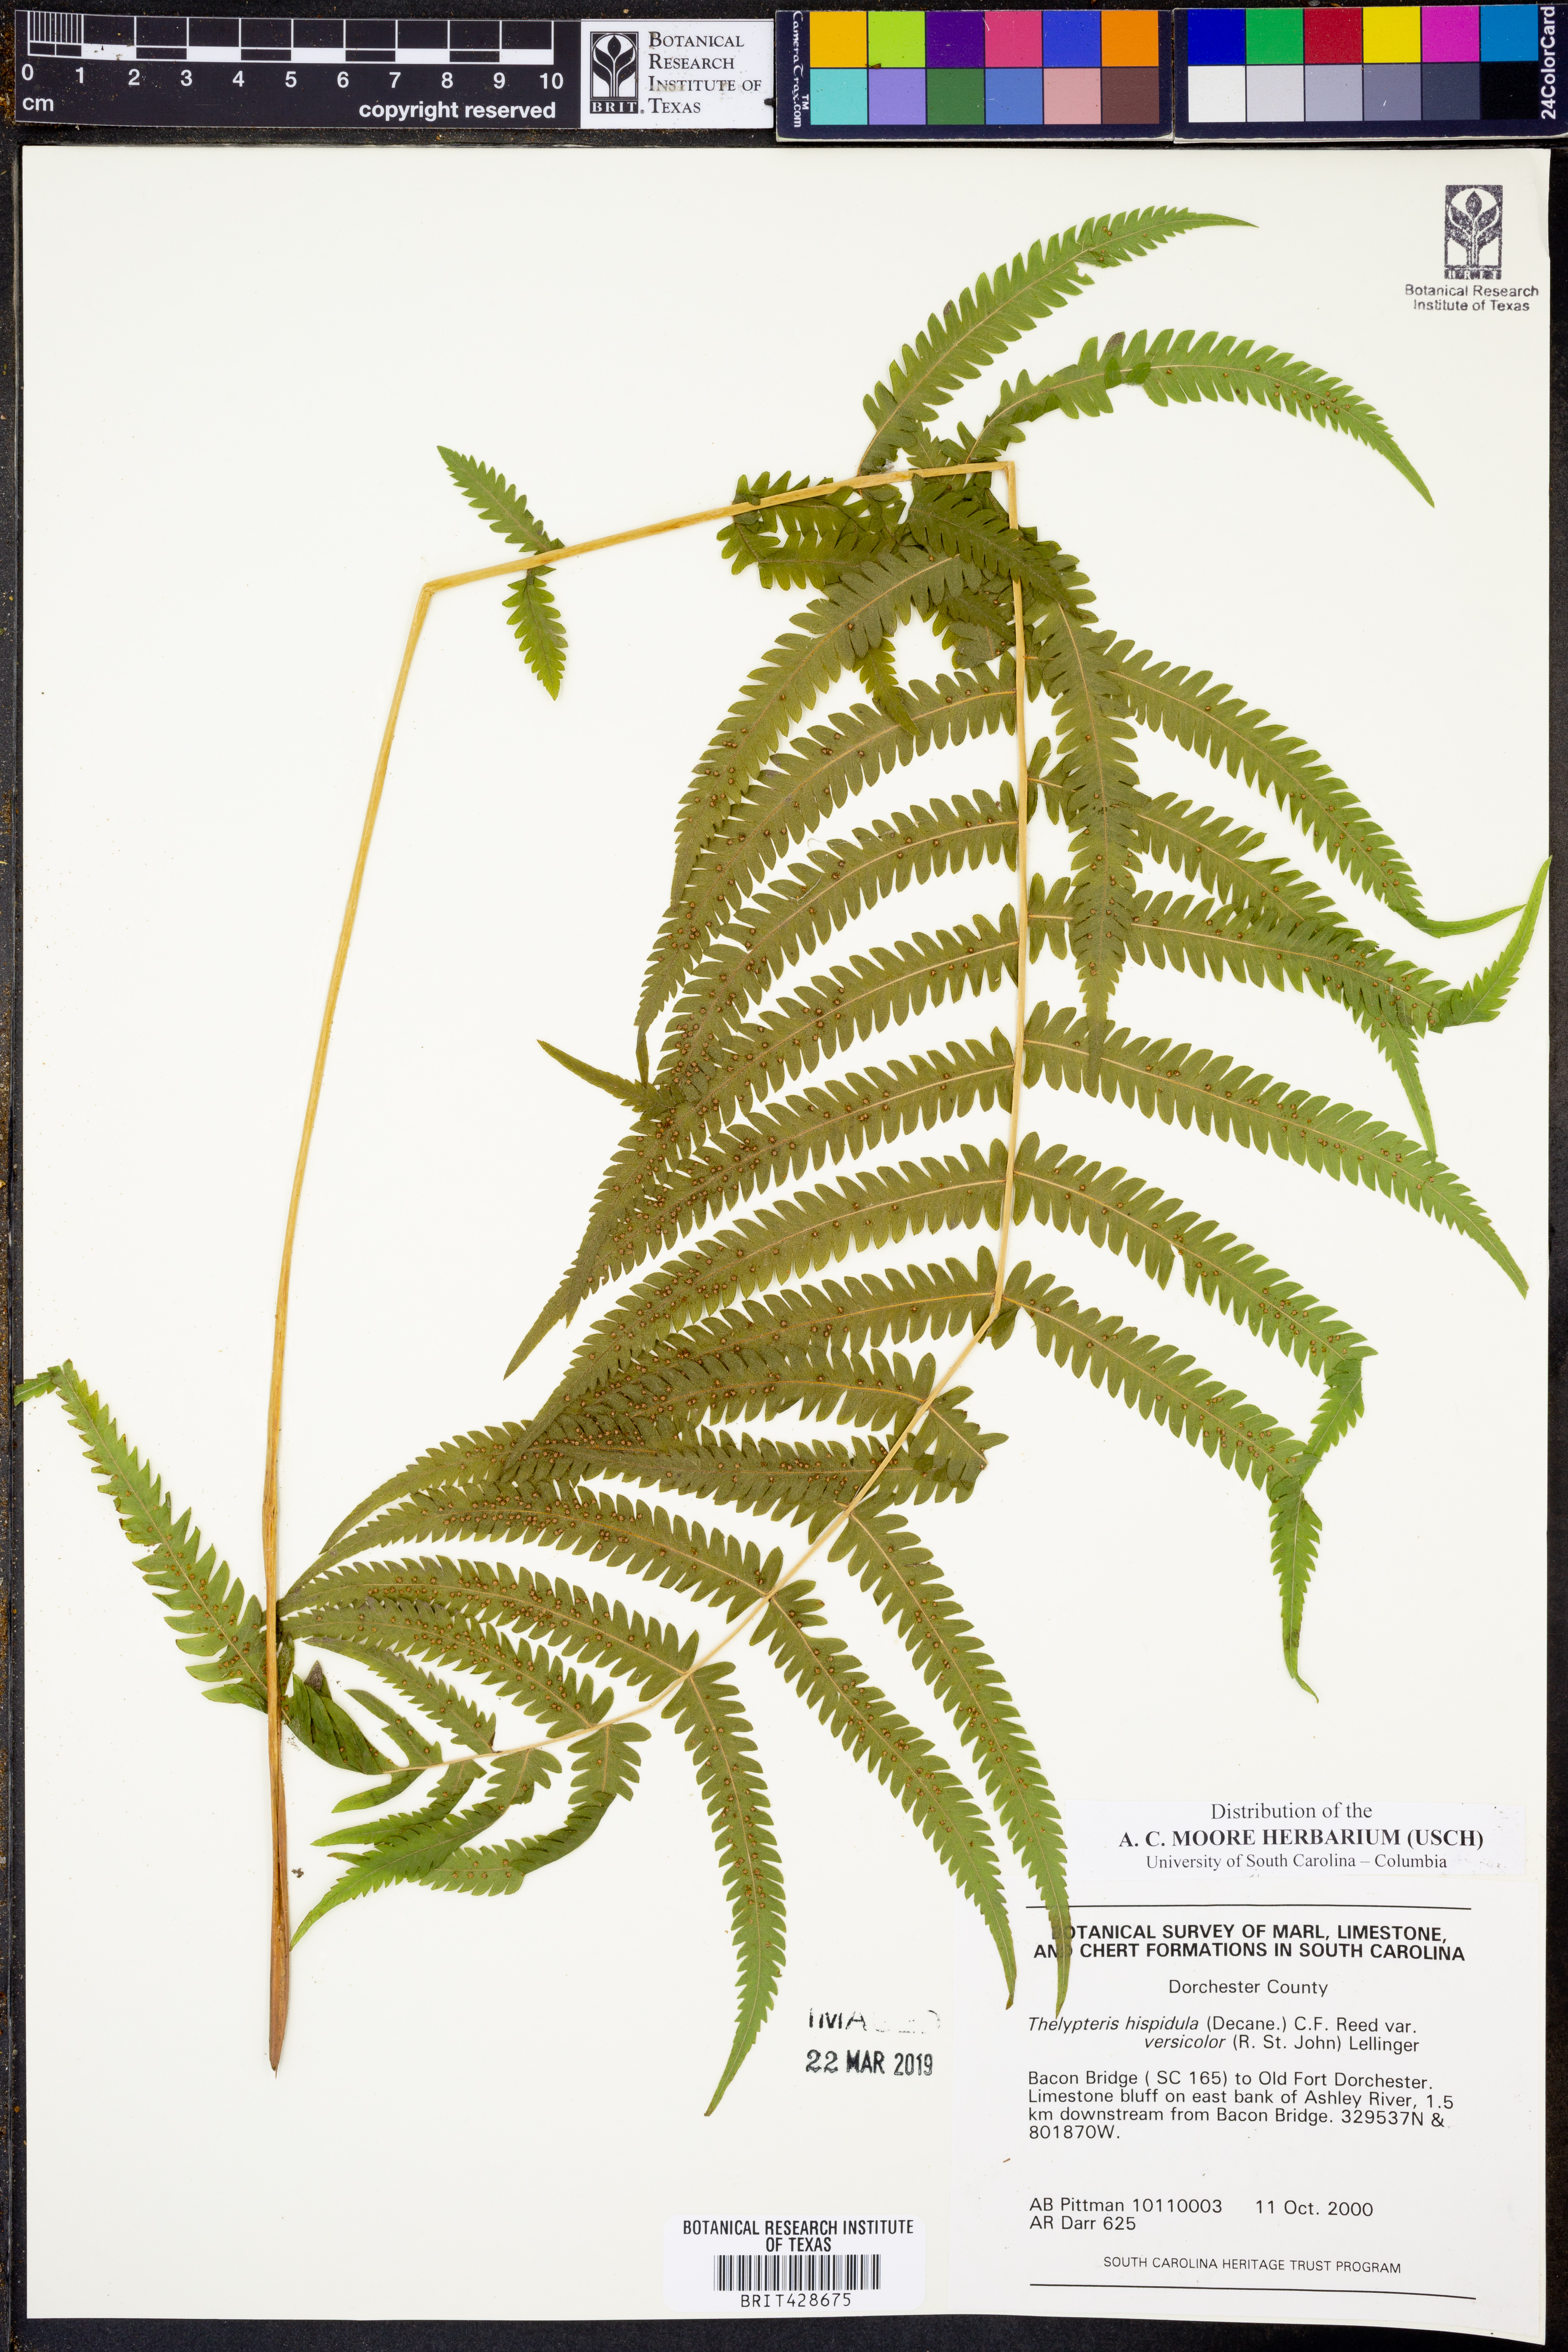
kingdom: Plantae
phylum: Tracheophyta
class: Polypodiopsida
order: Polypodiales
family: Thelypteridaceae
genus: Christella
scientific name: Christella hispidula
